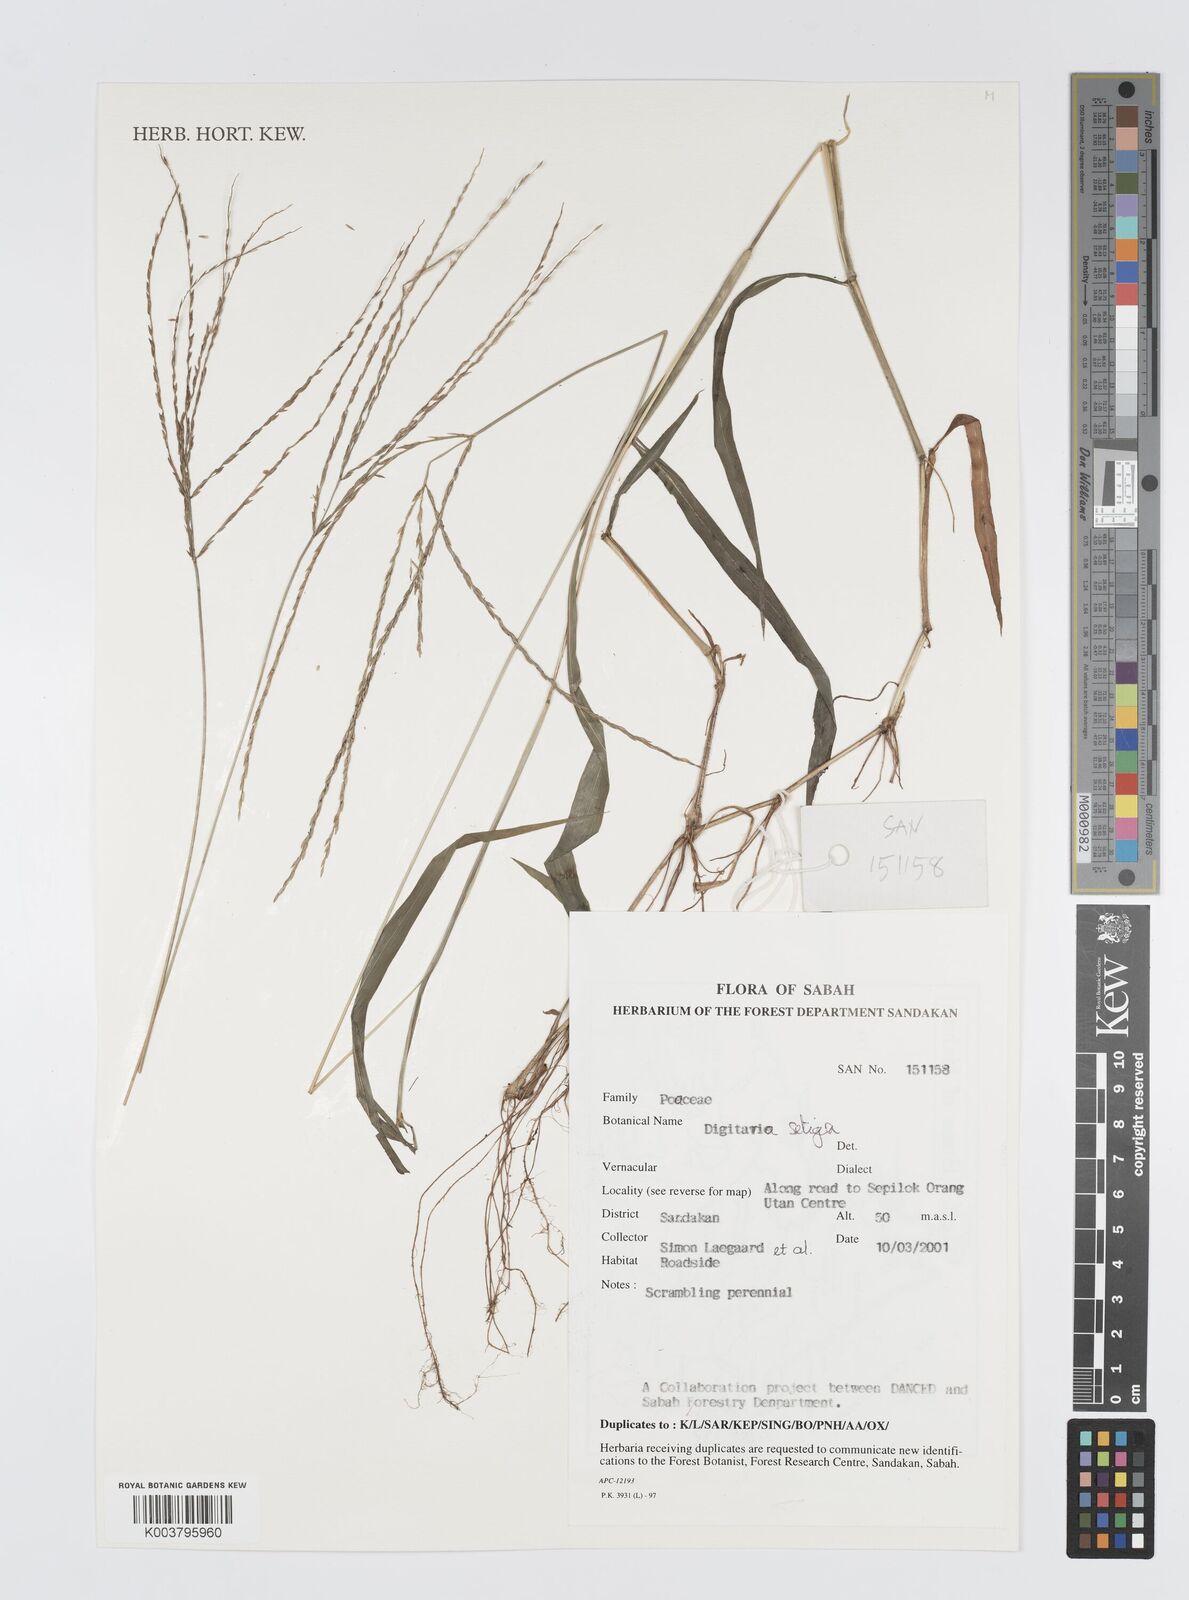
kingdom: Plantae
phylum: Tracheophyta
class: Liliopsida
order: Poales
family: Poaceae
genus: Digitaria
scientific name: Digitaria setigera
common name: East indian crabgrass
